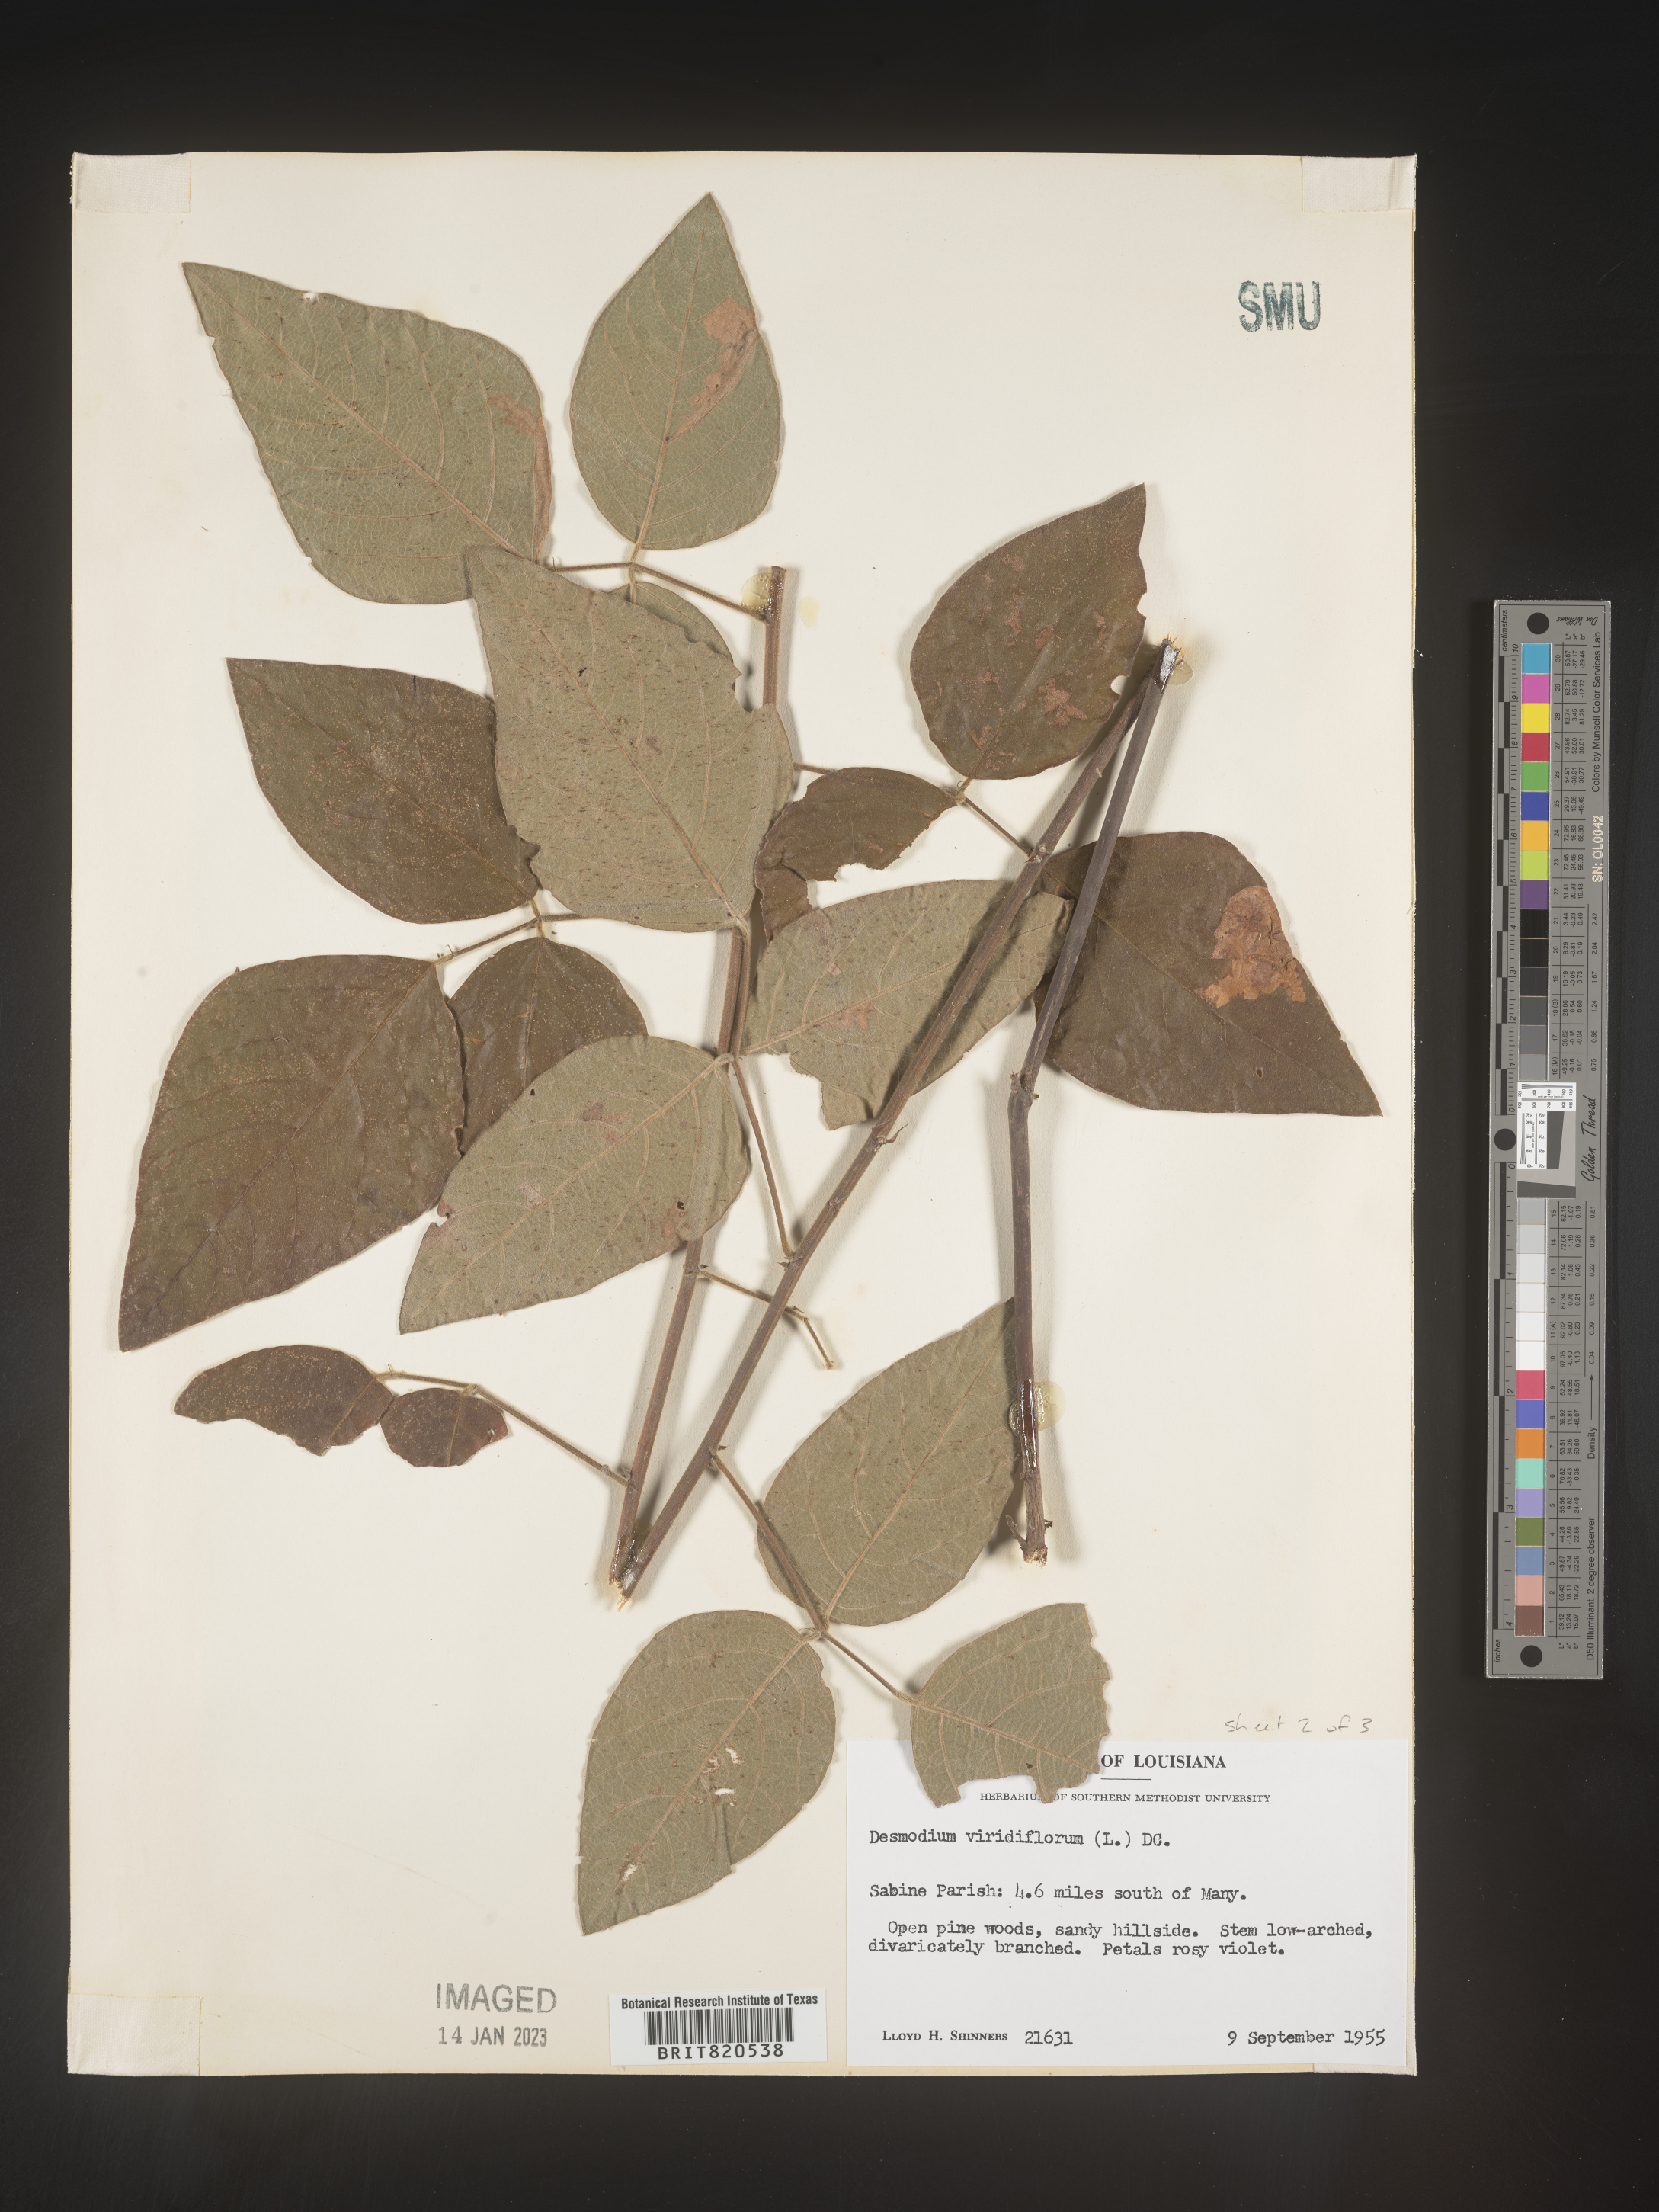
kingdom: Plantae
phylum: Tracheophyta
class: Magnoliopsida
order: Fabales
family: Fabaceae
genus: Desmodium
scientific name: Desmodium viridiflorum
